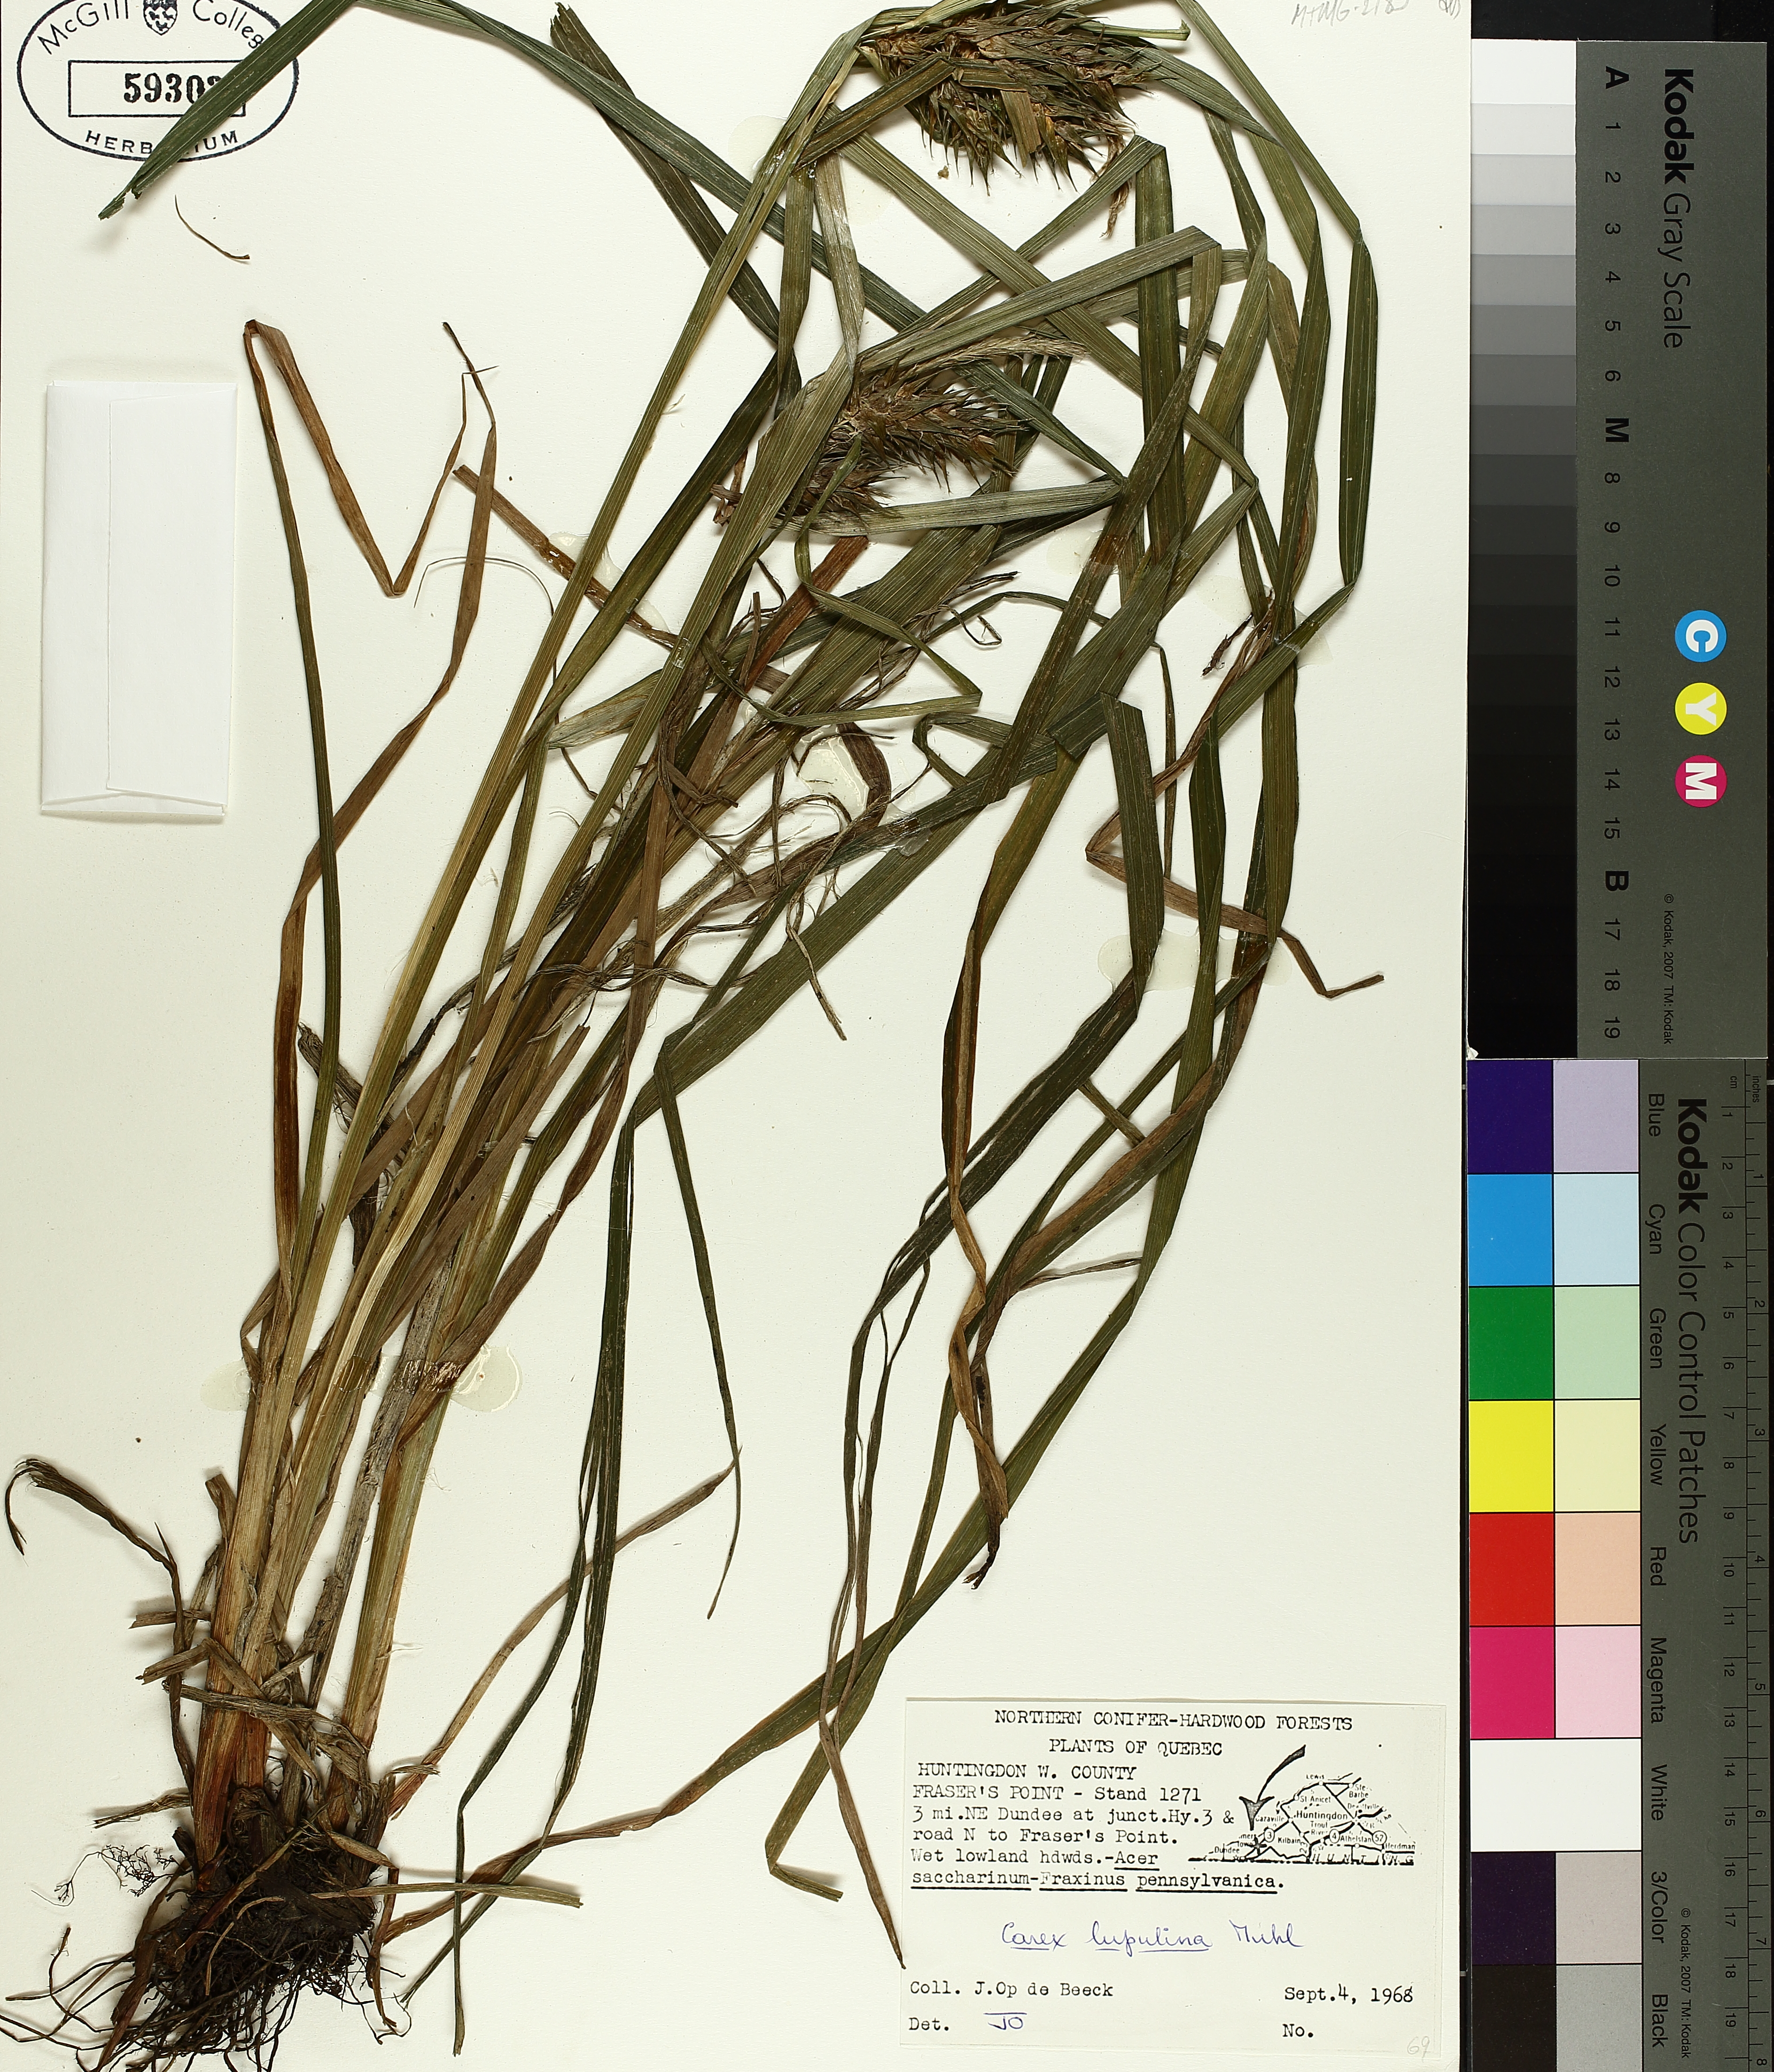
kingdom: Plantae
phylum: Tracheophyta
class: Liliopsida
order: Poales
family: Cyperaceae
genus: Carex
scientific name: Carex lupulina
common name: Hop sedge
